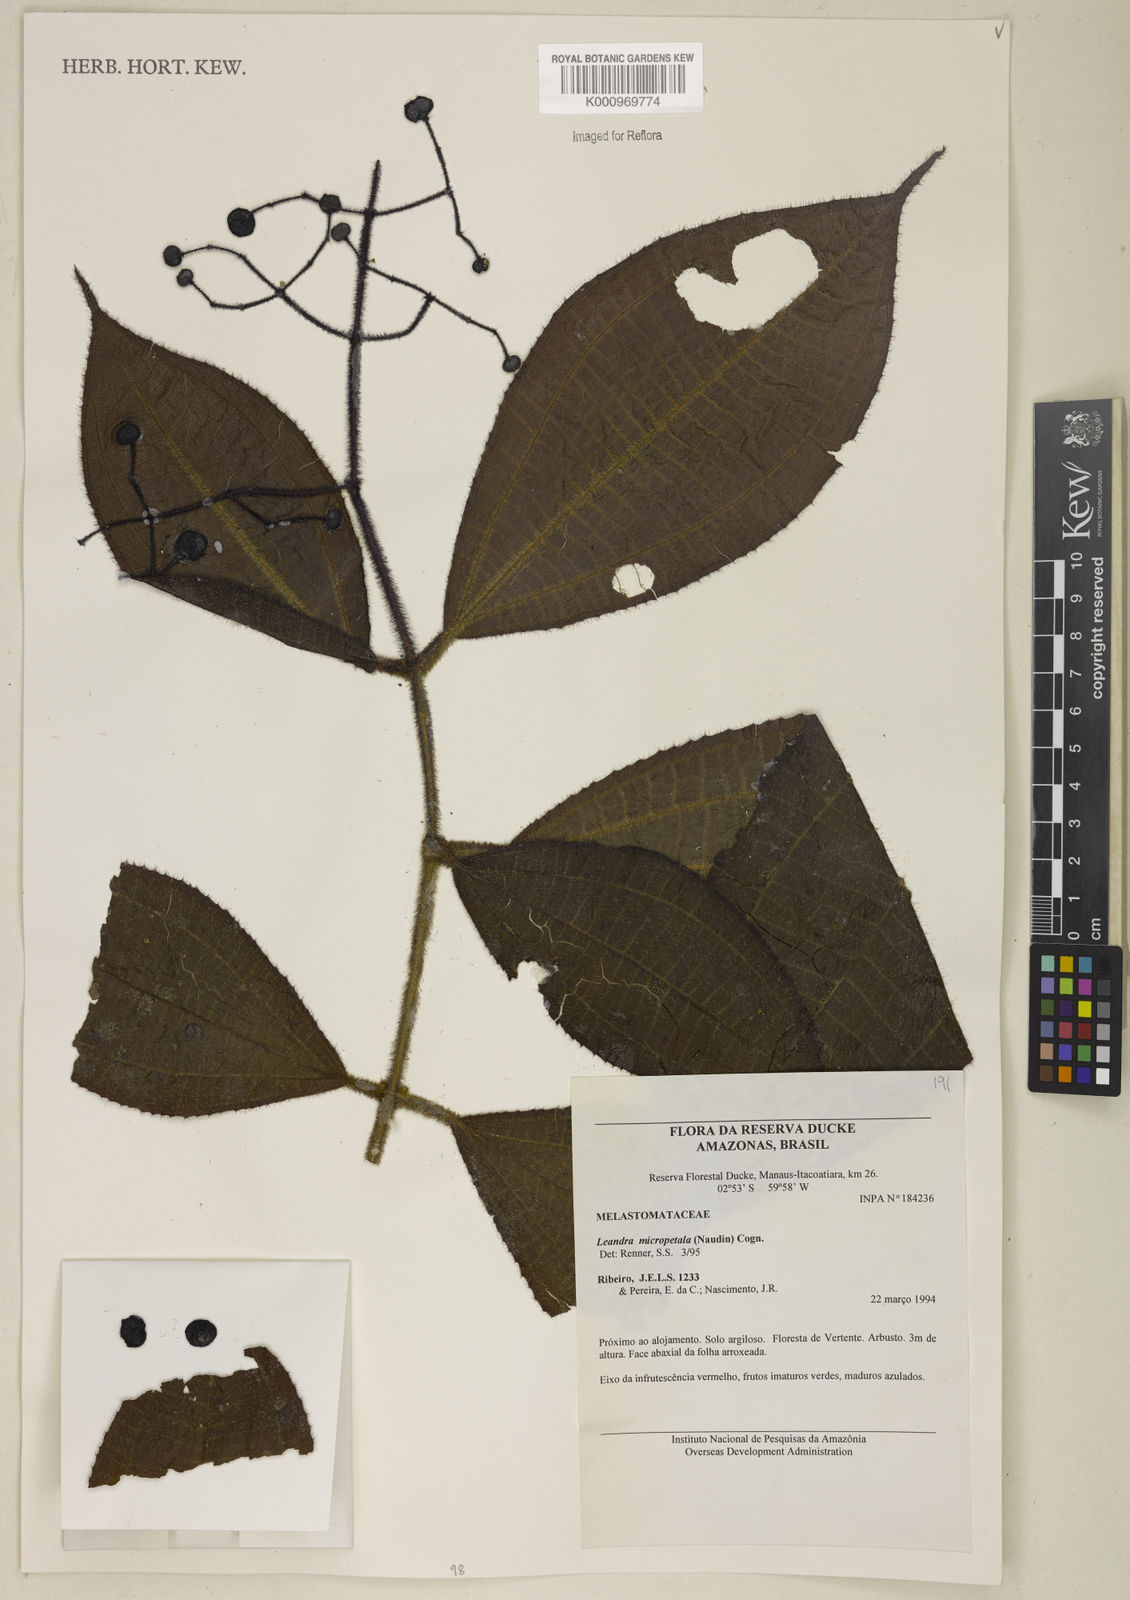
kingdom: Plantae
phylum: Tracheophyta
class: Magnoliopsida
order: Myrtales
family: Melastomataceae
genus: Miconia
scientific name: Miconia nanopetala
